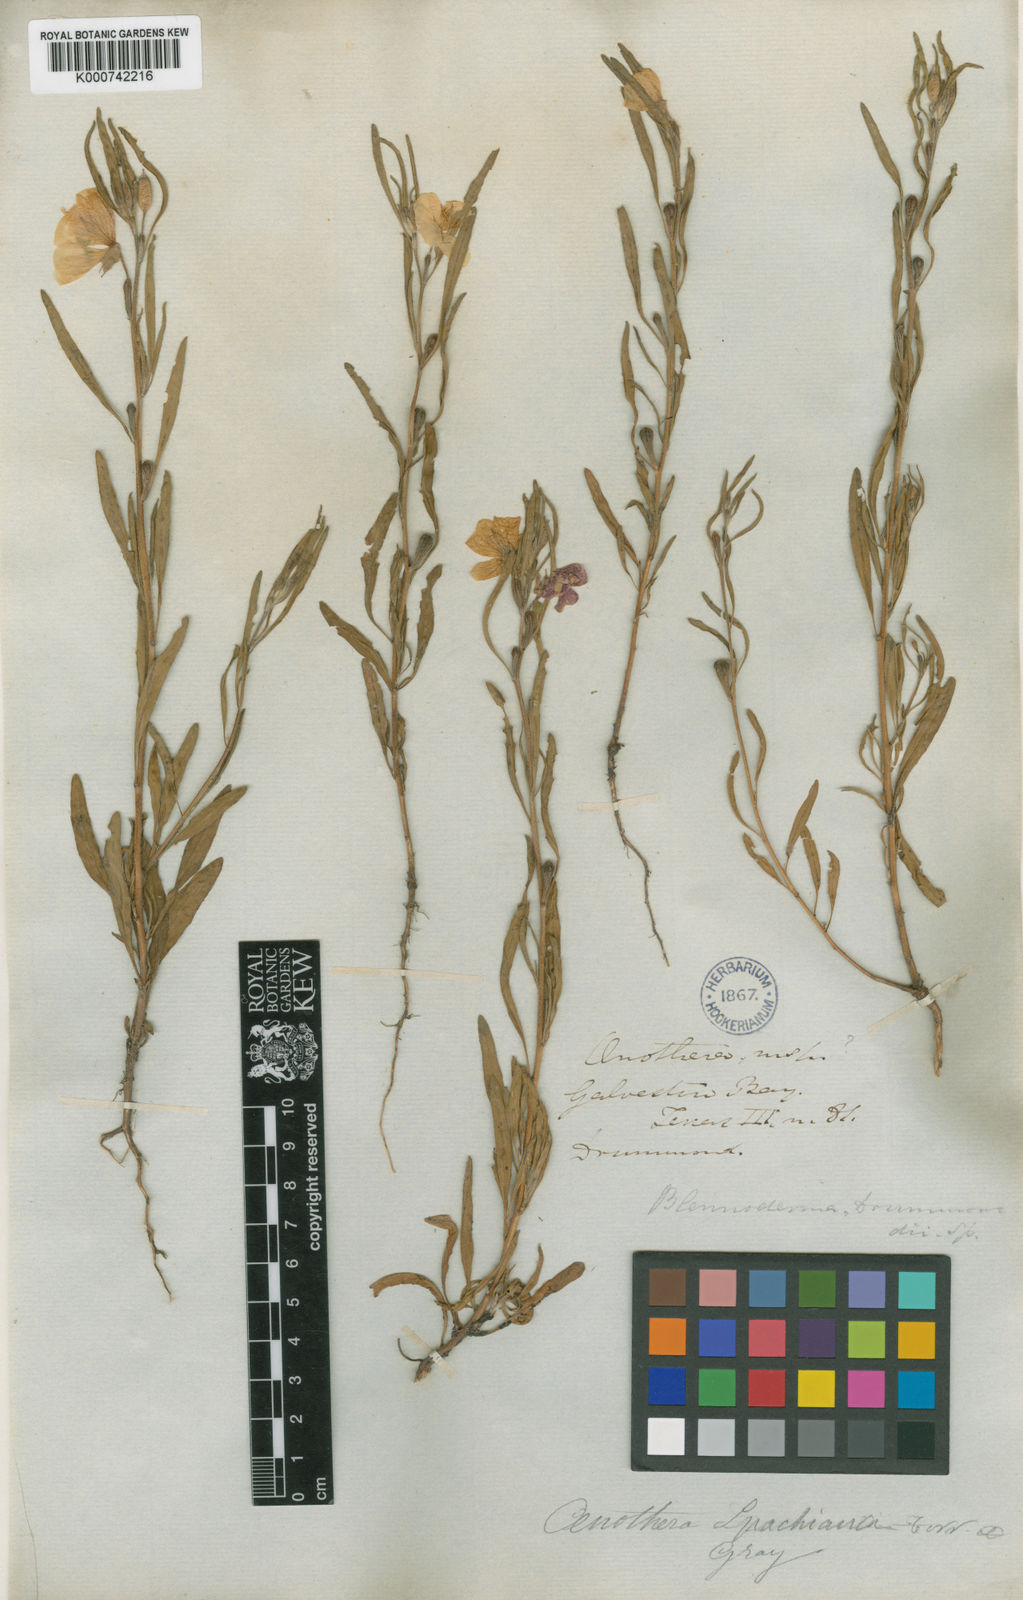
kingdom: Plantae
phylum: Tracheophyta
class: Magnoliopsida
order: Myrtales
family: Onagraceae
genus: Oenothera
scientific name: Oenothera spachiana
